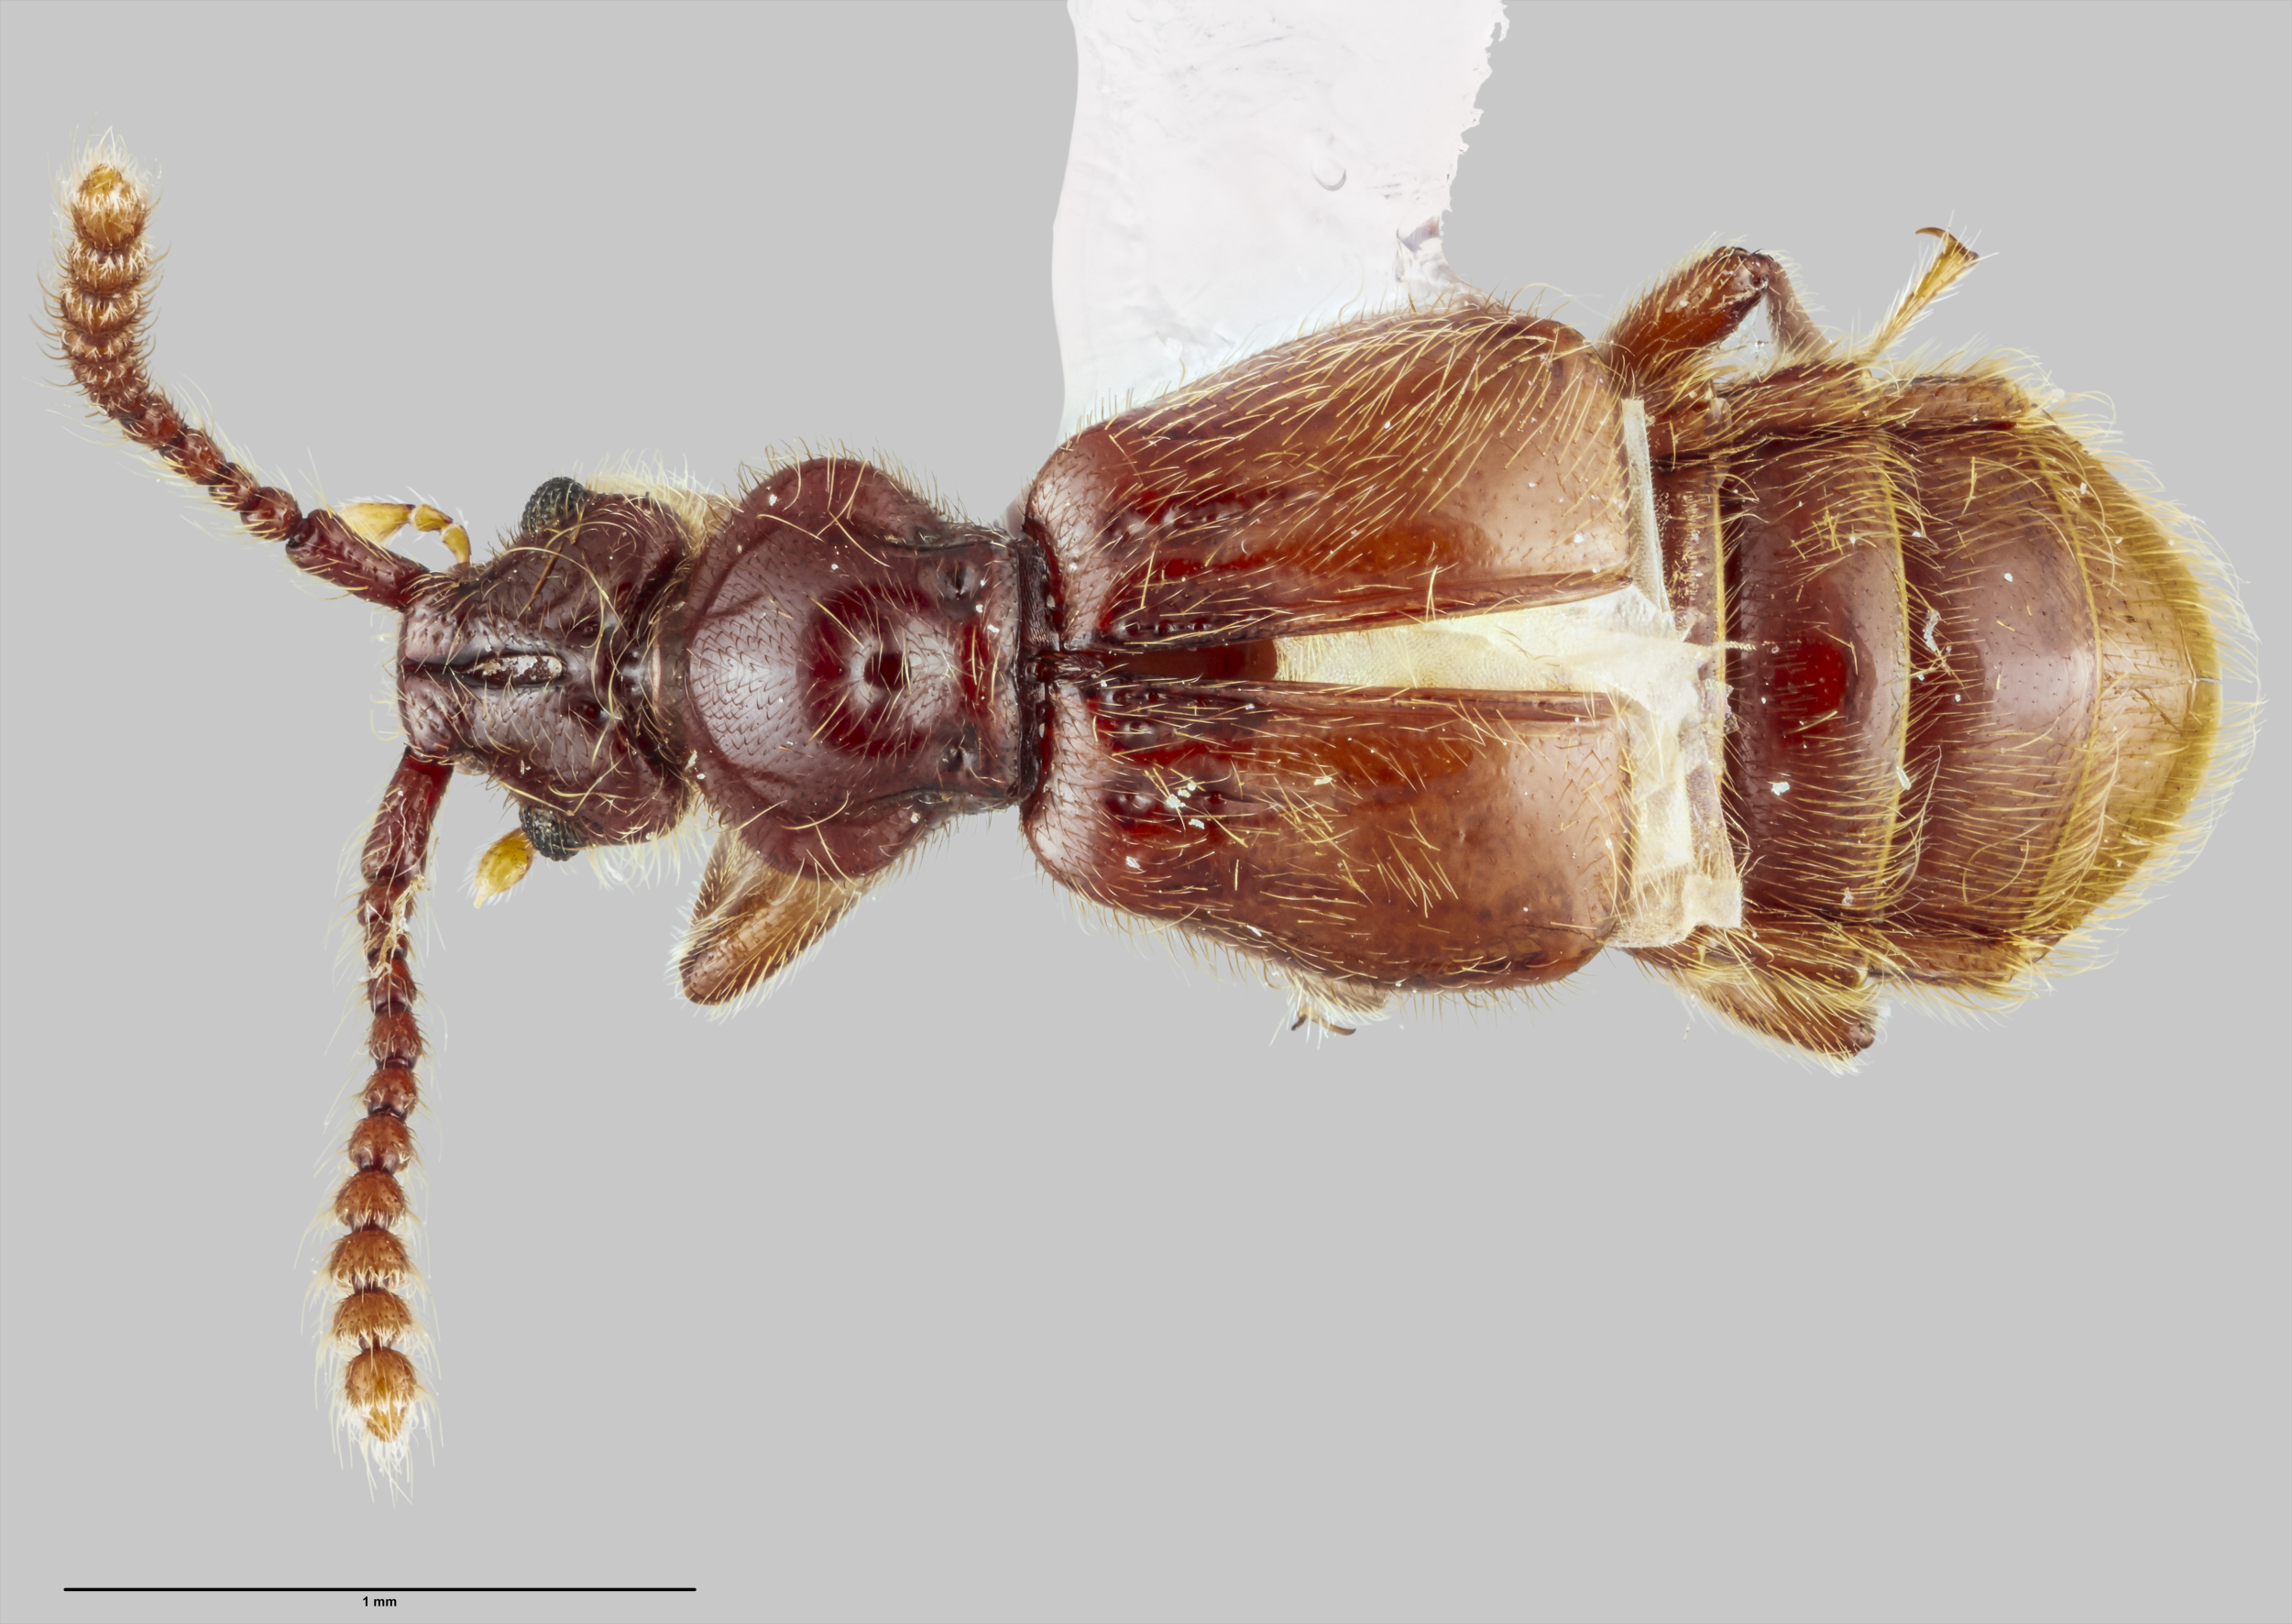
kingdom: Animalia
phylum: Arthropoda
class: Insecta
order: Coleoptera
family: Staphylinidae
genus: Sagola
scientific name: Sagola thorpei
